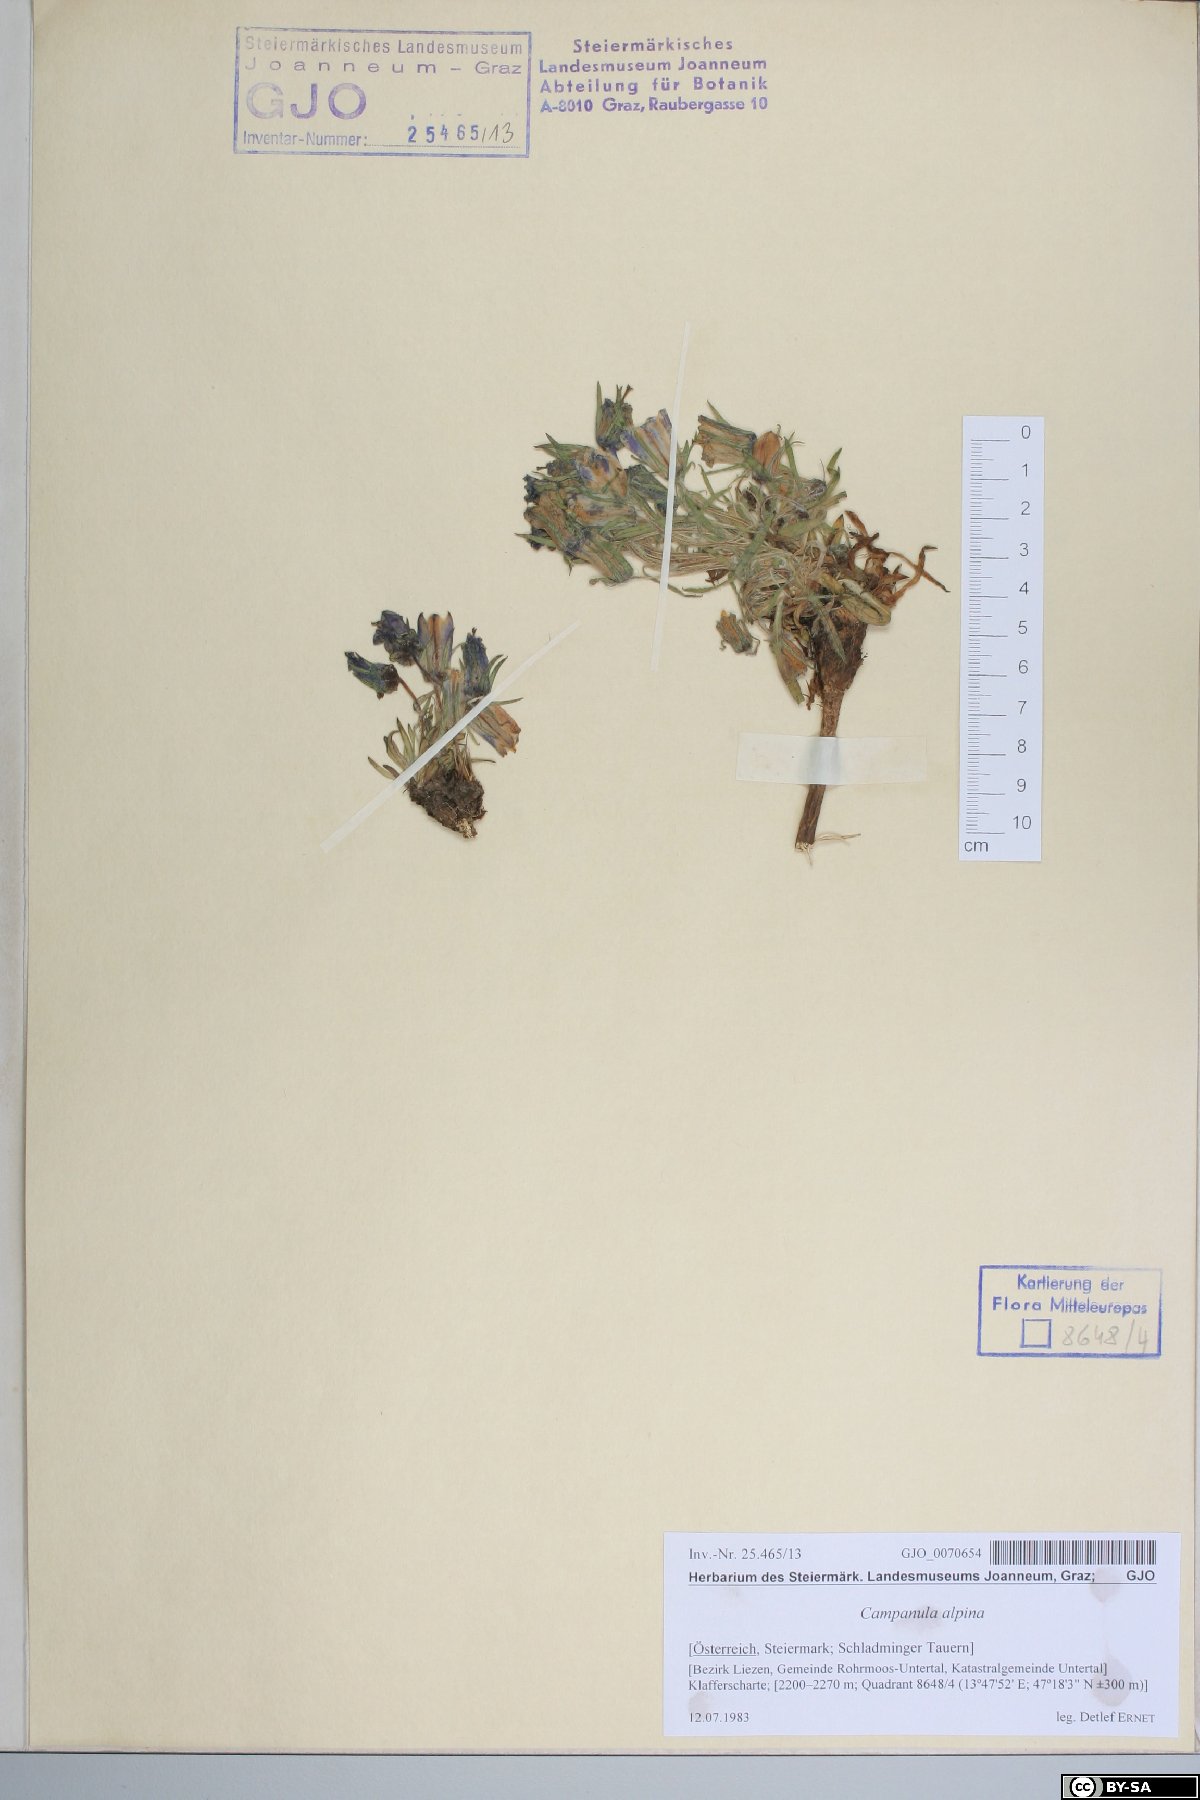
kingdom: Plantae
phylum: Tracheophyta
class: Magnoliopsida
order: Asterales
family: Campanulaceae
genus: Campanula
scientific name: Campanula alpina
